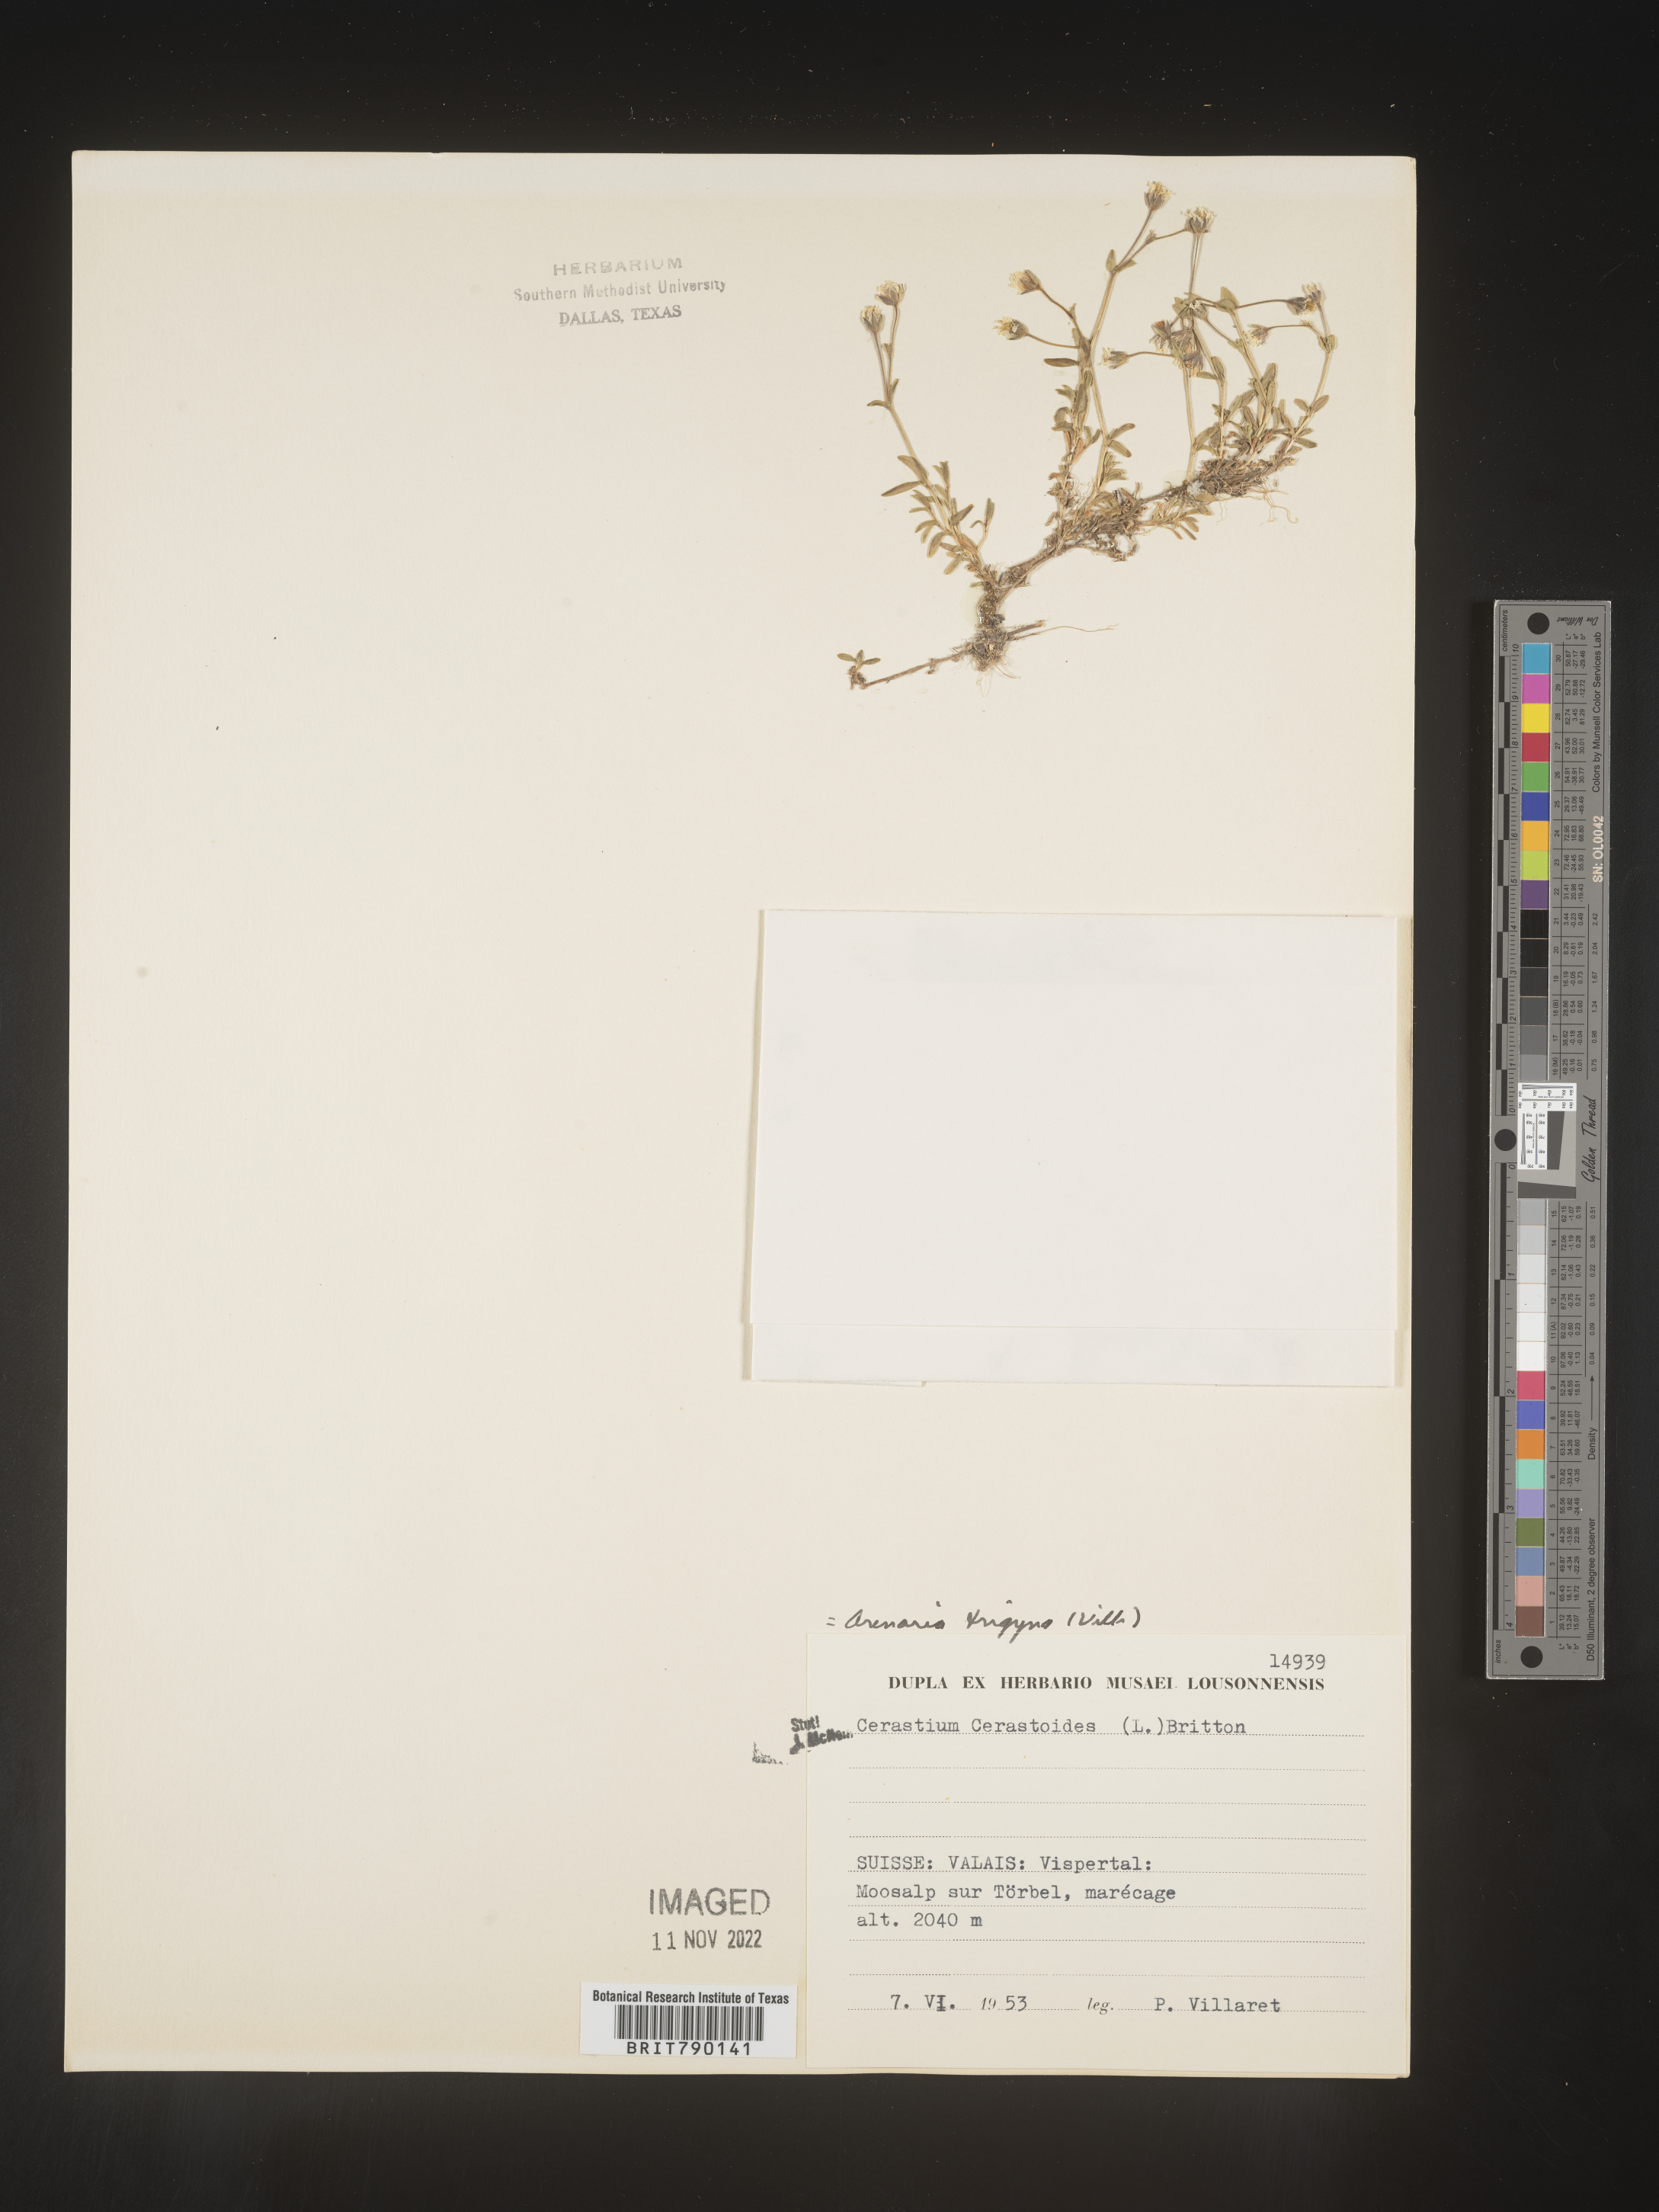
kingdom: Plantae
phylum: Tracheophyta
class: Magnoliopsida
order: Caryophyllales
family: Caryophyllaceae
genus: Cerastium
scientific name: Cerastium
